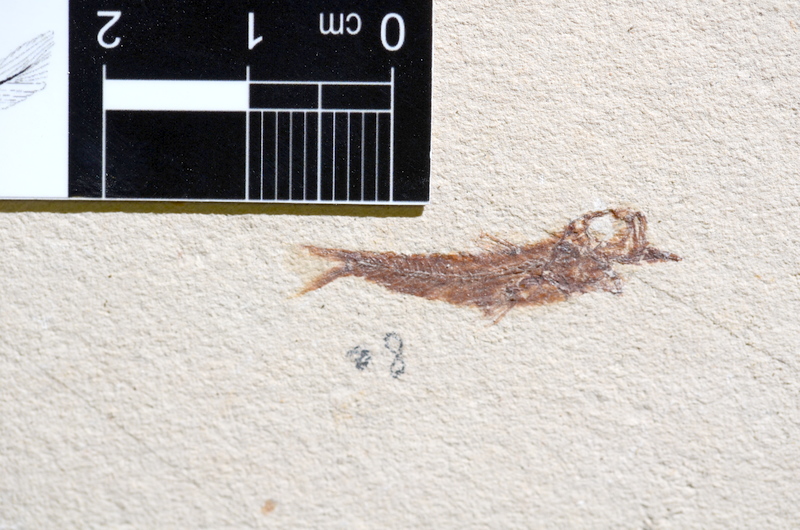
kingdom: Animalia
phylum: Chordata
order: Clupeiformes
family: Clupeidae
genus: Clupea
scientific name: Clupea harengus
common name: Herring
